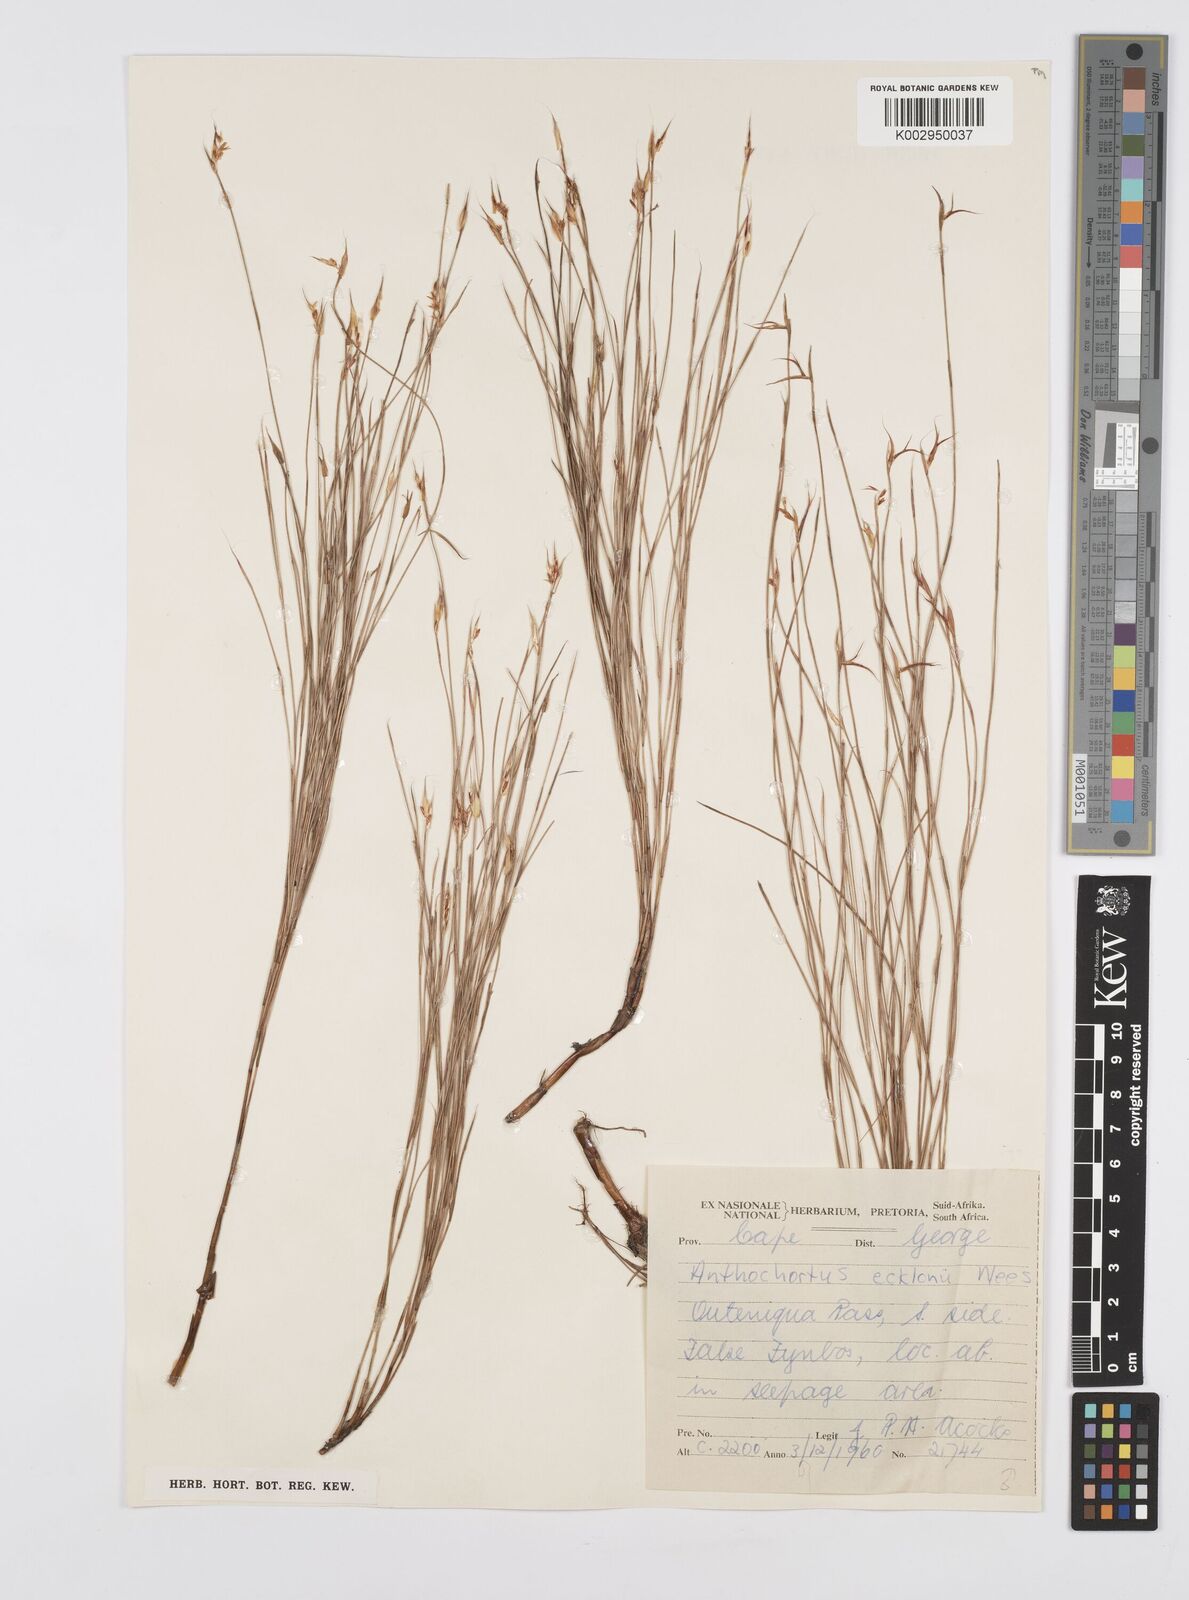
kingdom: Plantae
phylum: Tracheophyta
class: Liliopsida
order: Poales
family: Restionaceae
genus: Anthochortus
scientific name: Anthochortus ecklonii
